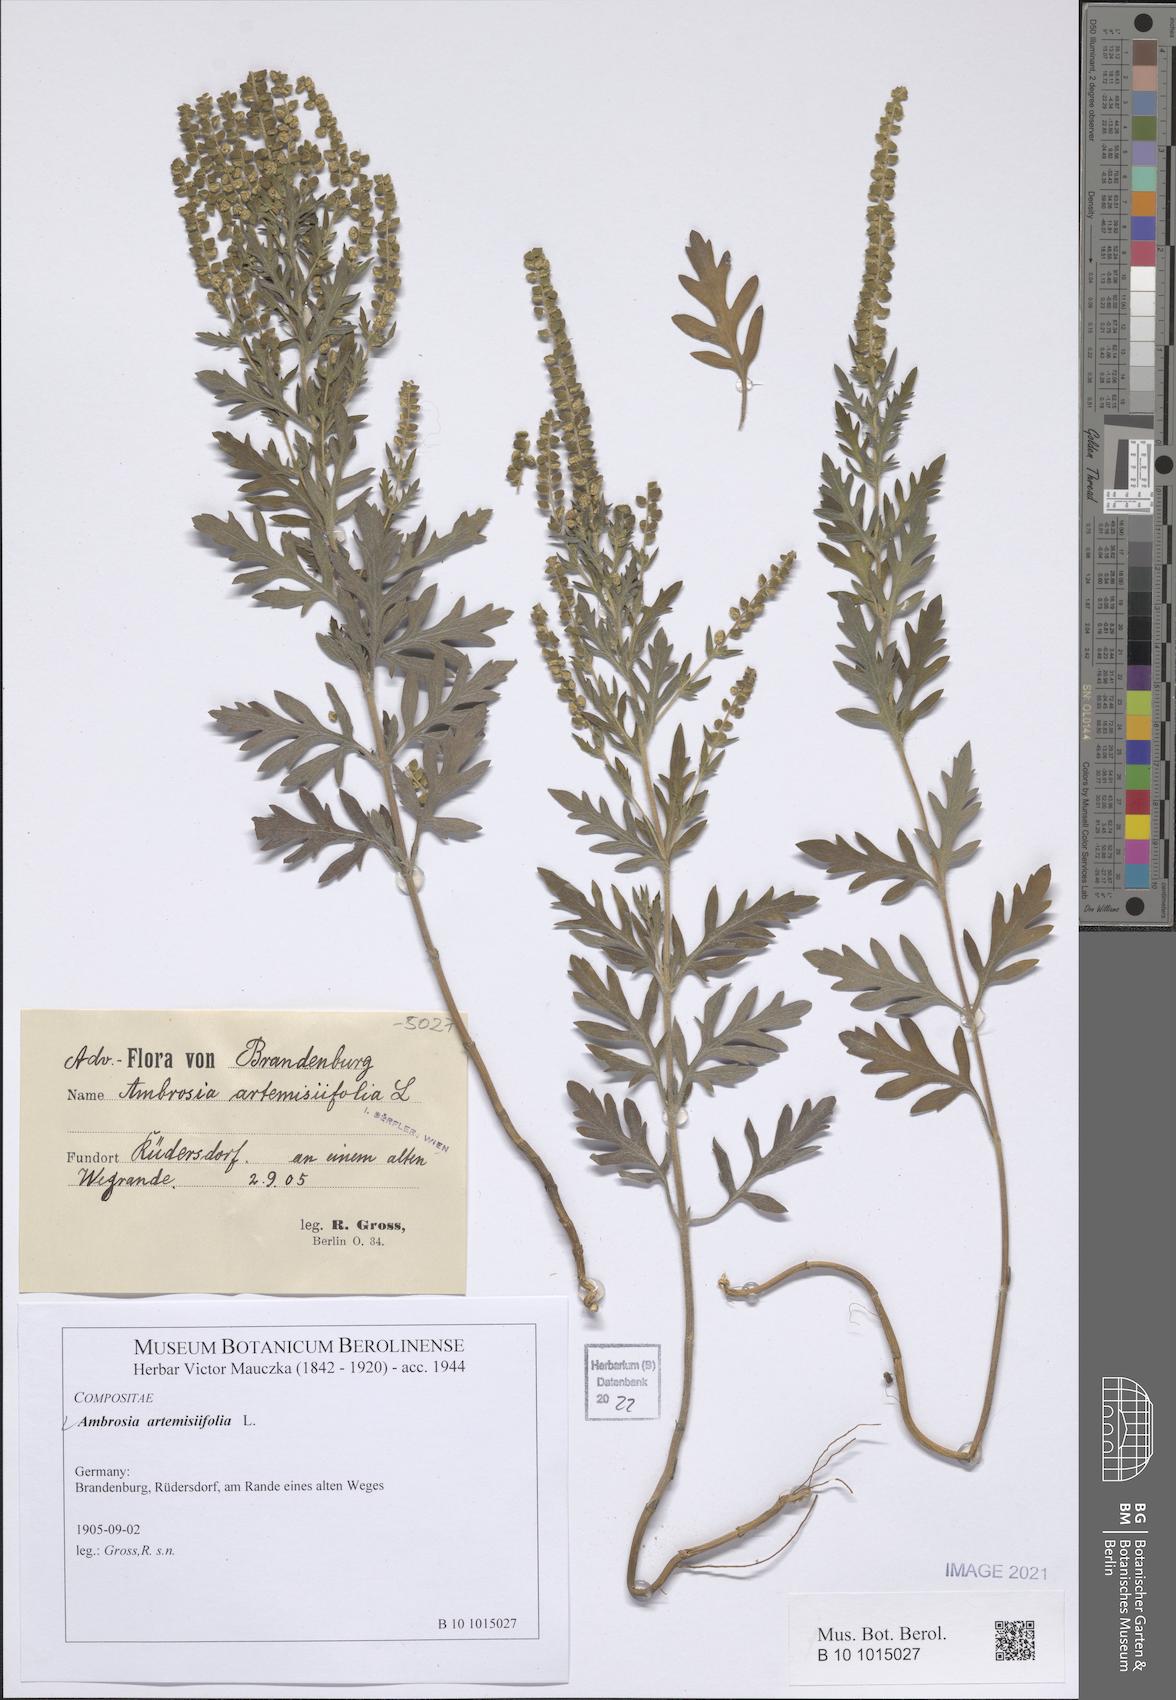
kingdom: Plantae
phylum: Tracheophyta
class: Magnoliopsida
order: Asterales
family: Asteraceae
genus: Ambrosia
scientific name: Ambrosia artemisiifolia
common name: Annual ragweed
